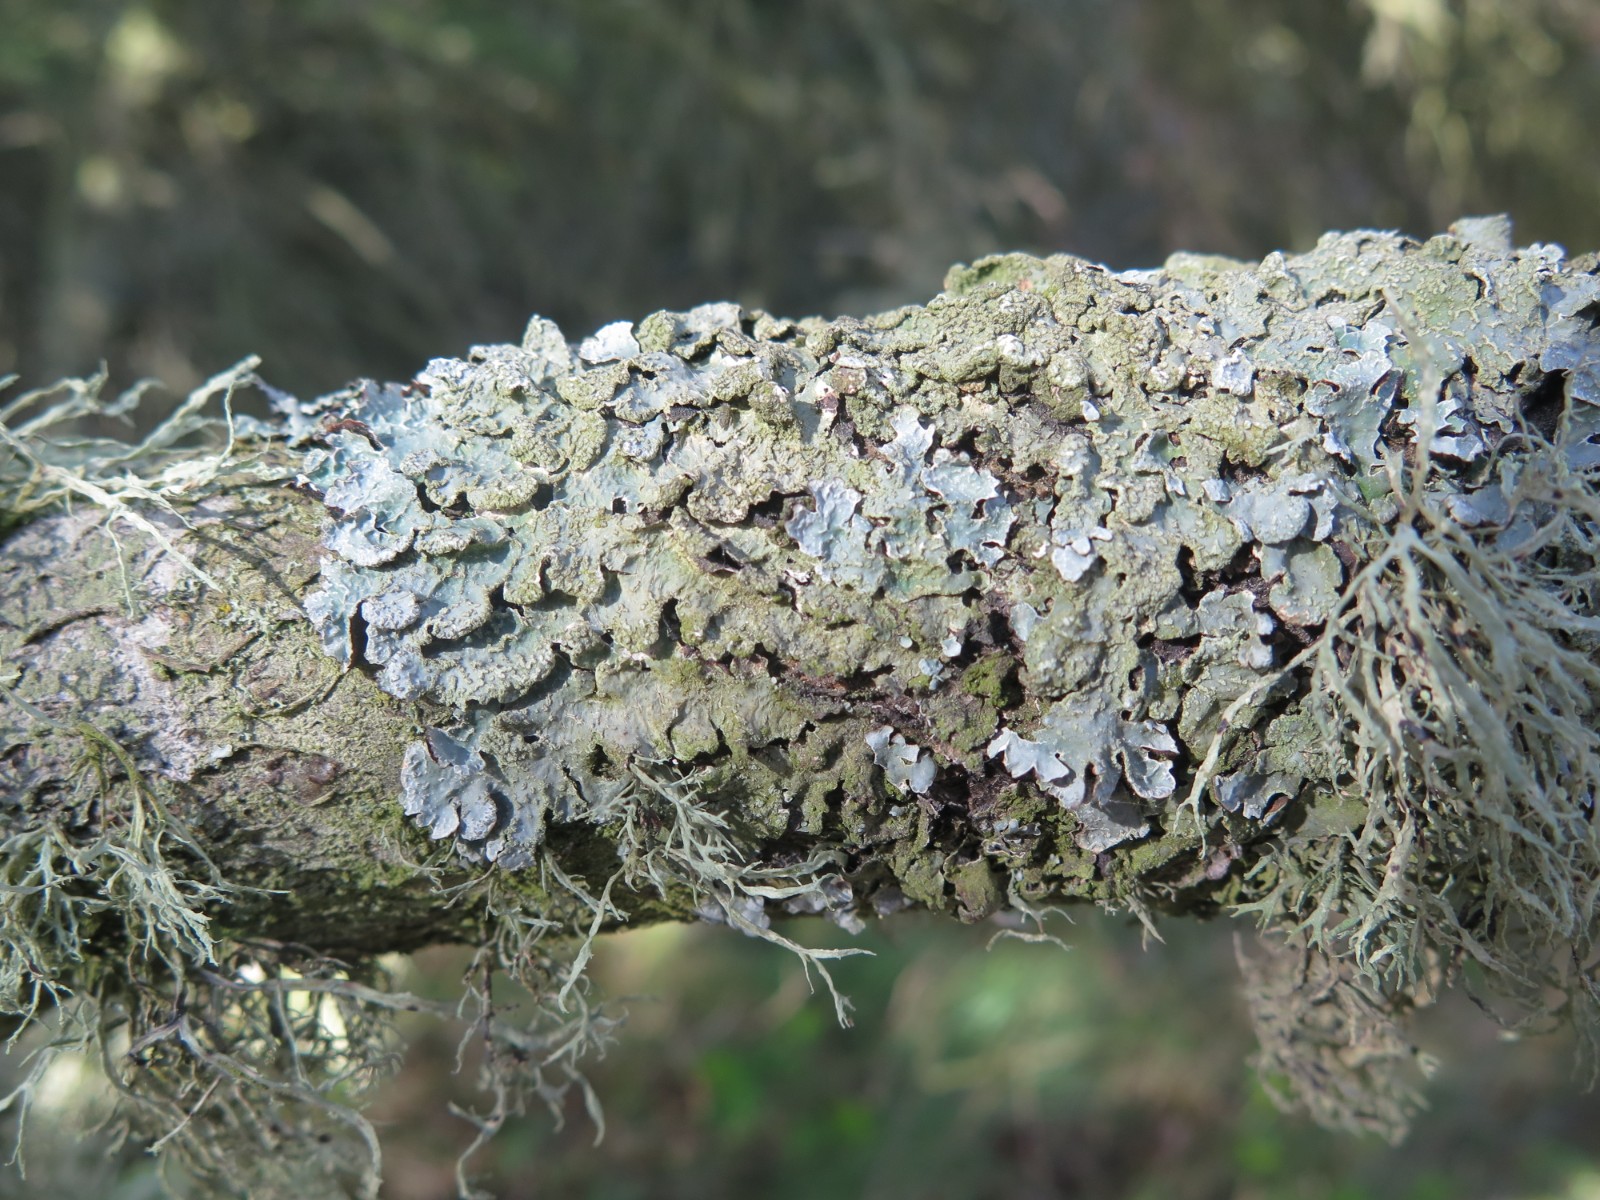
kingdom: Fungi
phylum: Ascomycota
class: Lecanoromycetes
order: Lecanorales
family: Ramalinaceae
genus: Ramalina
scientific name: Ramalina farinacea
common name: melet grenlav
